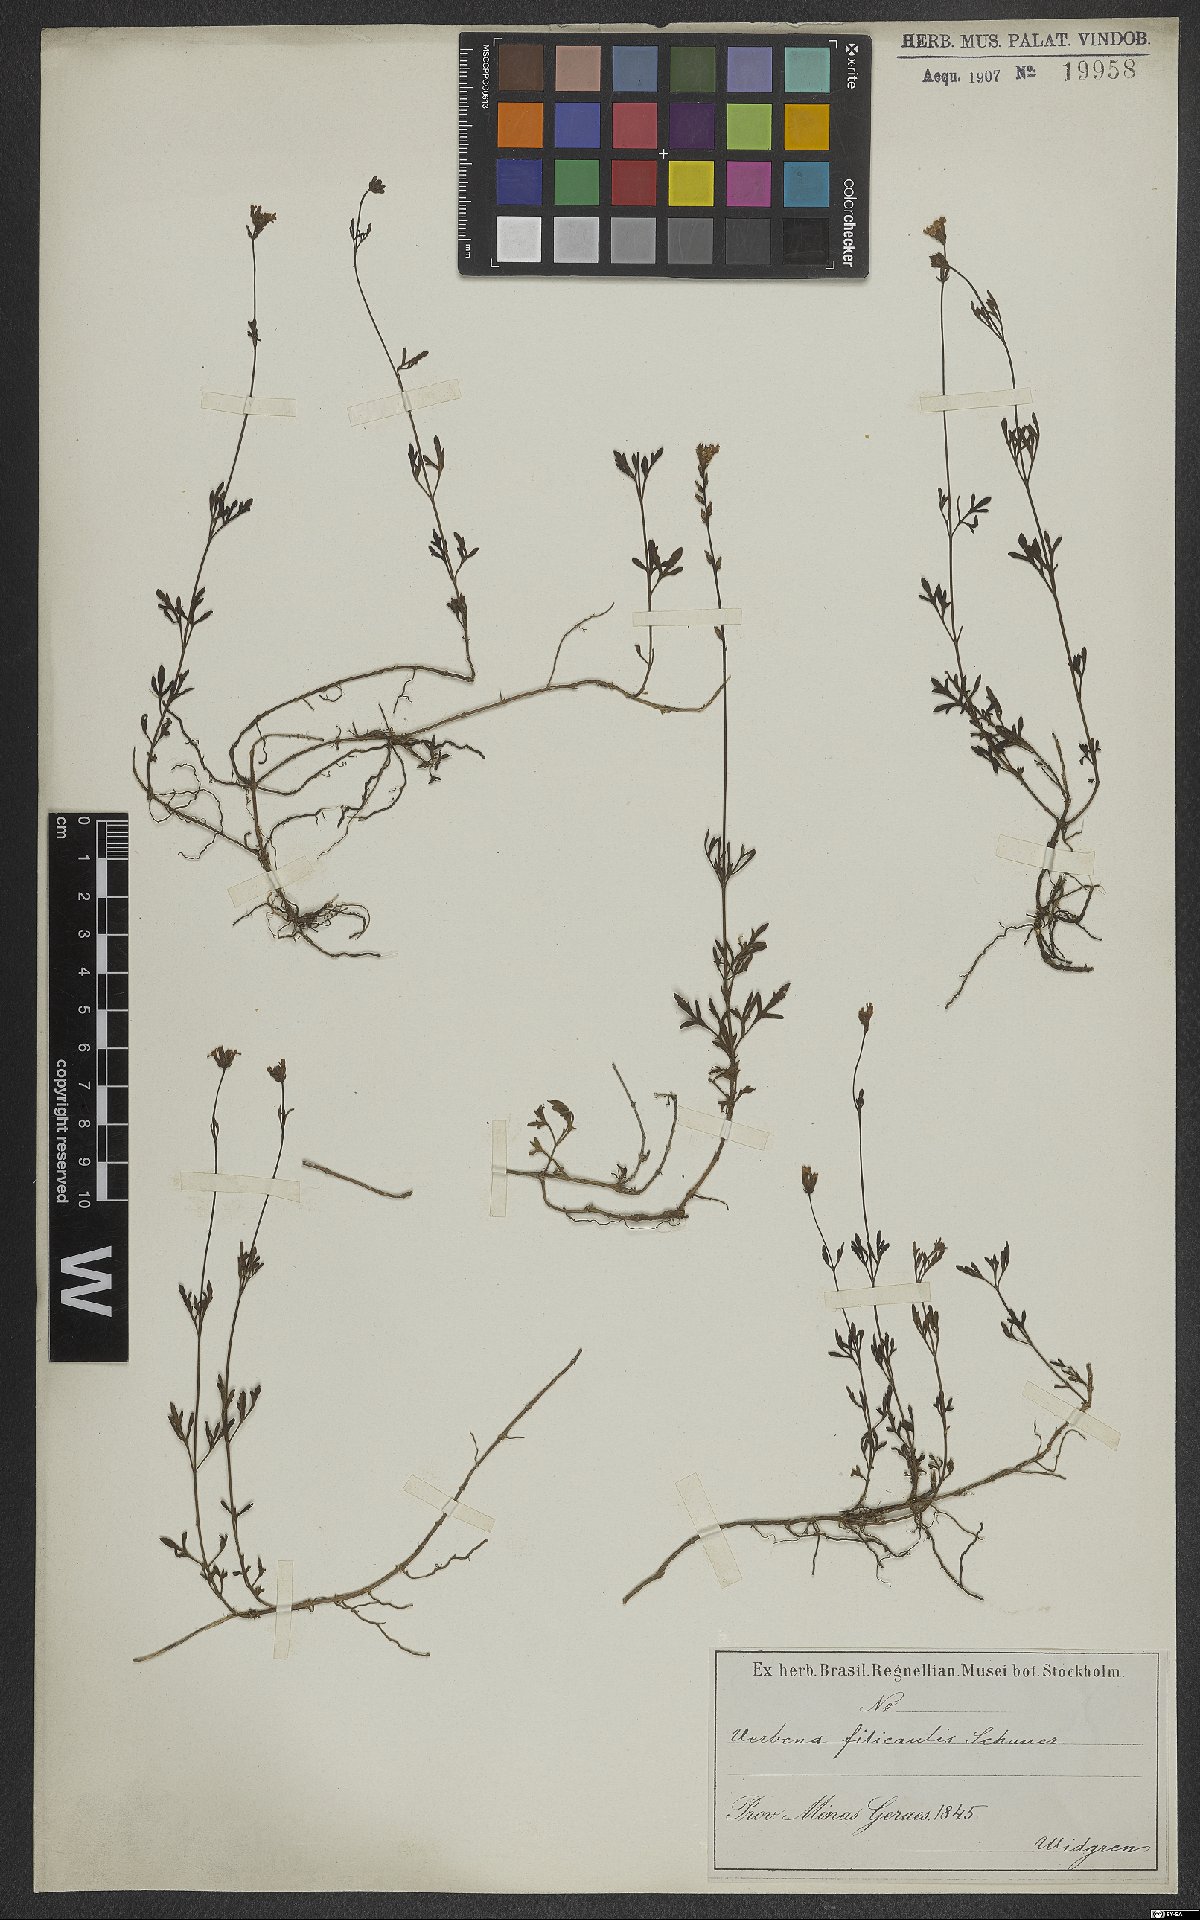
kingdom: Plantae
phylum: Tracheophyta
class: Magnoliopsida
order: Lamiales
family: Verbenaceae
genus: Verbena
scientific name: Verbena filicaulis
